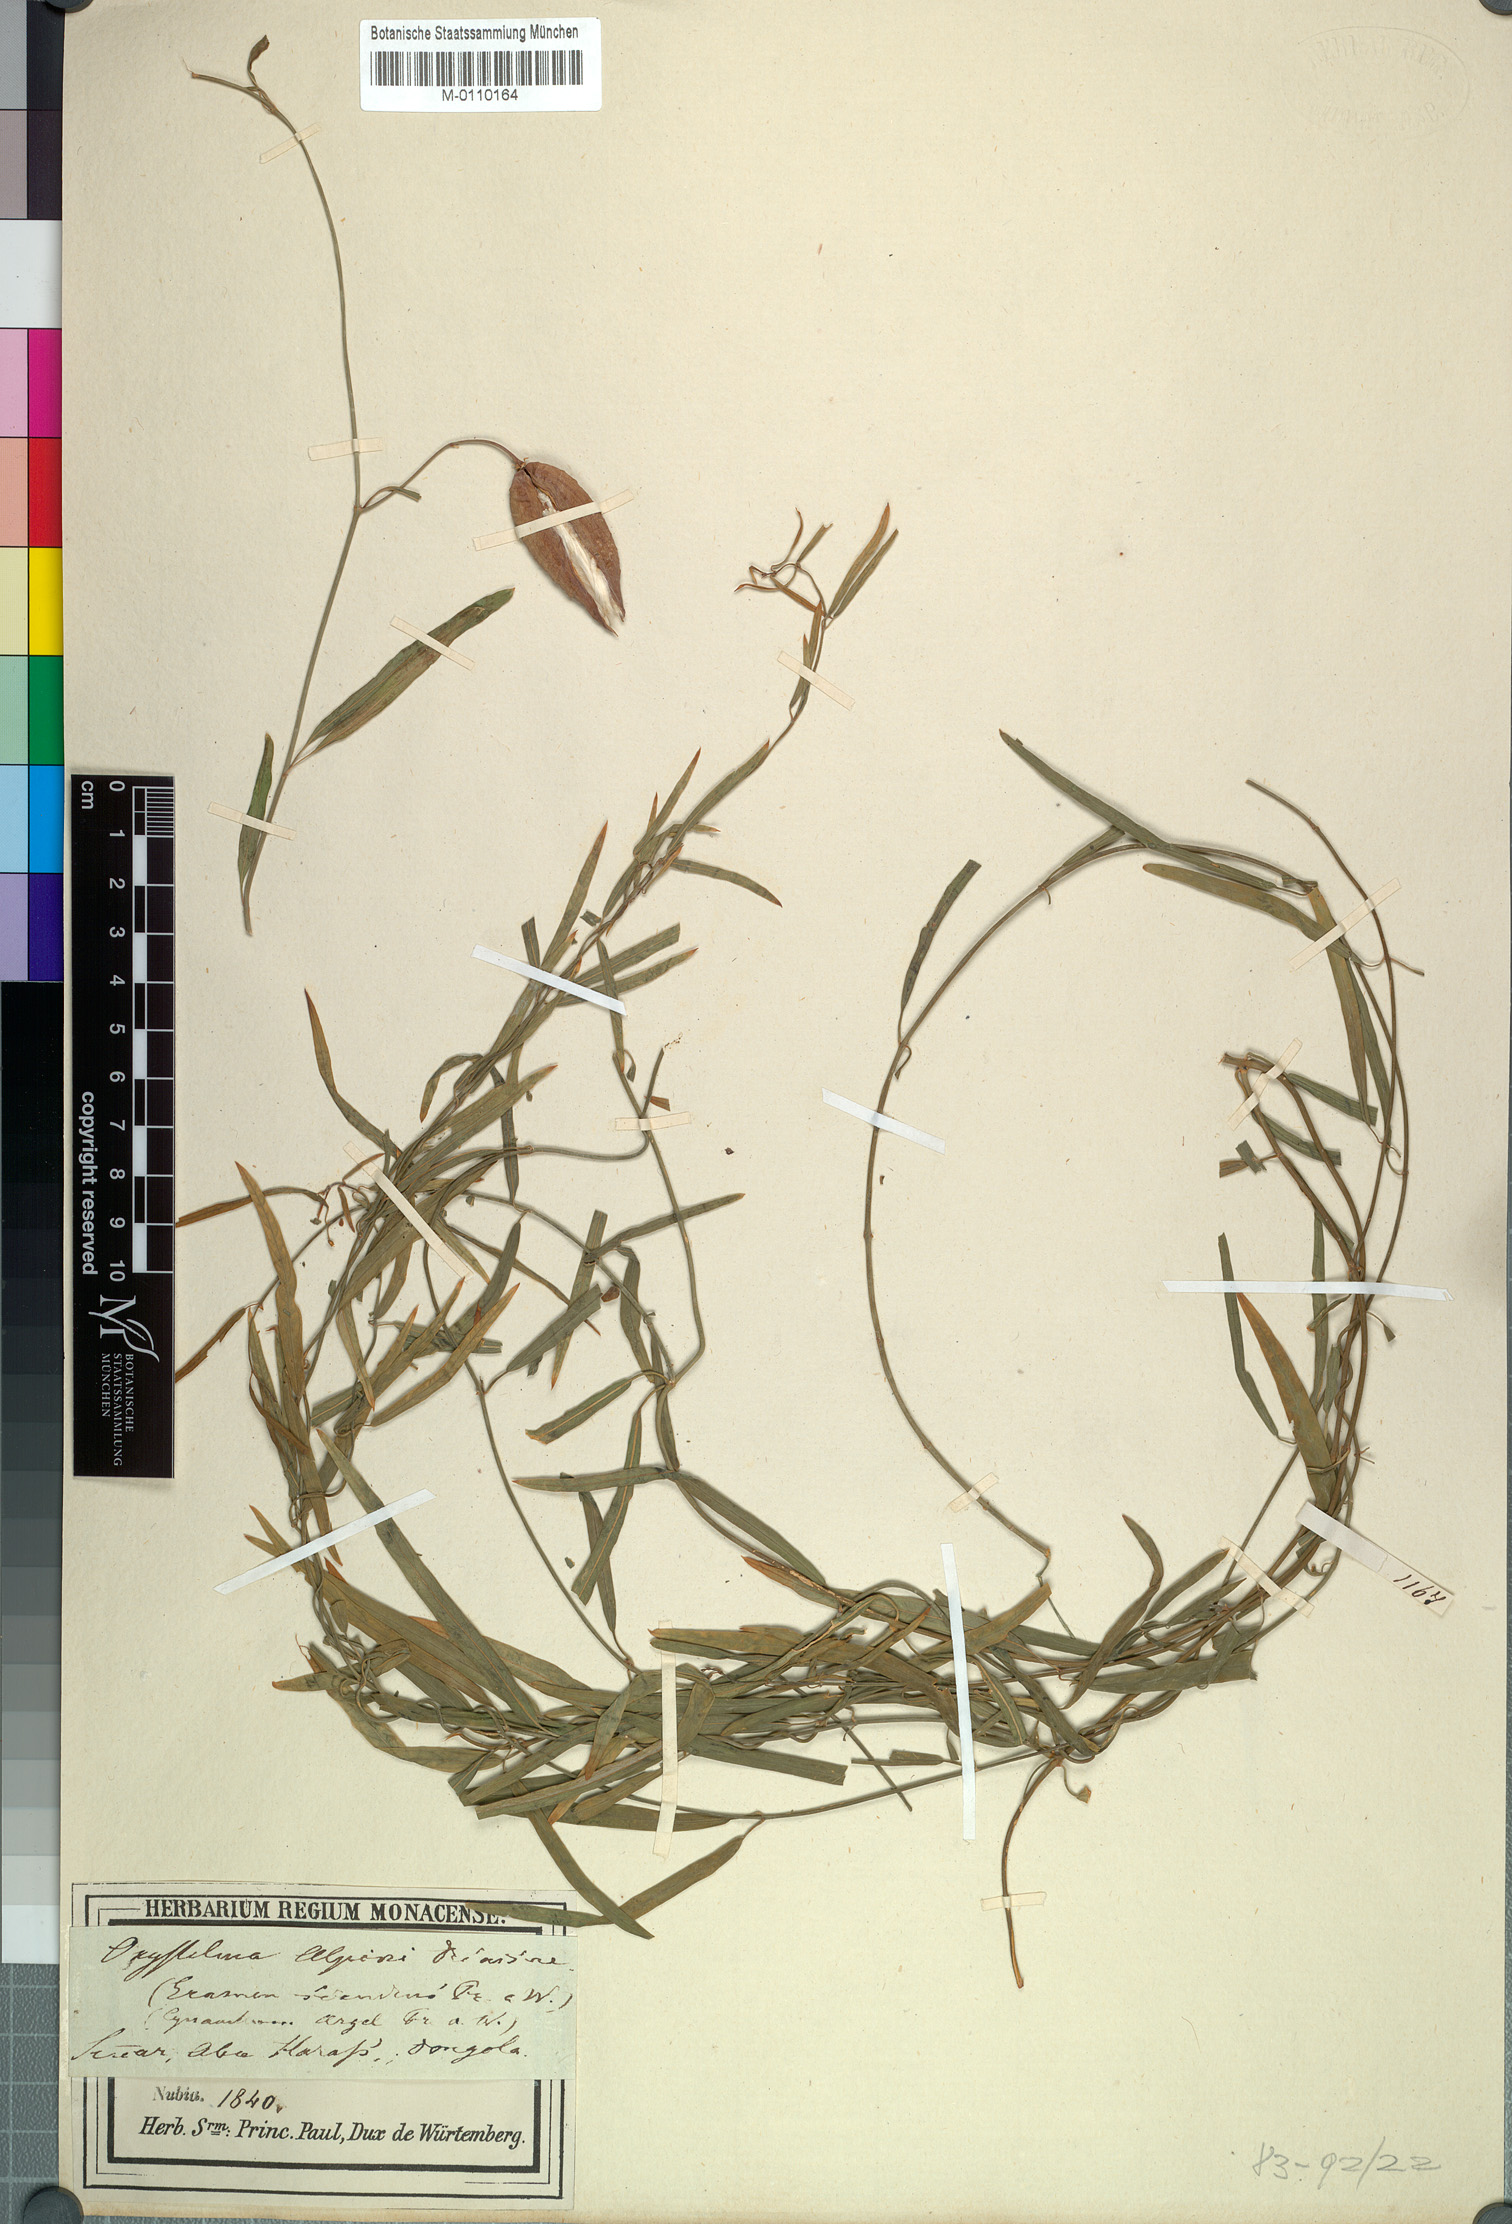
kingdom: Plantae
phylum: Tracheophyta
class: Magnoliopsida
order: Gentianales
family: Apocynaceae
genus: Secamone
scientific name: Secamone alpini
